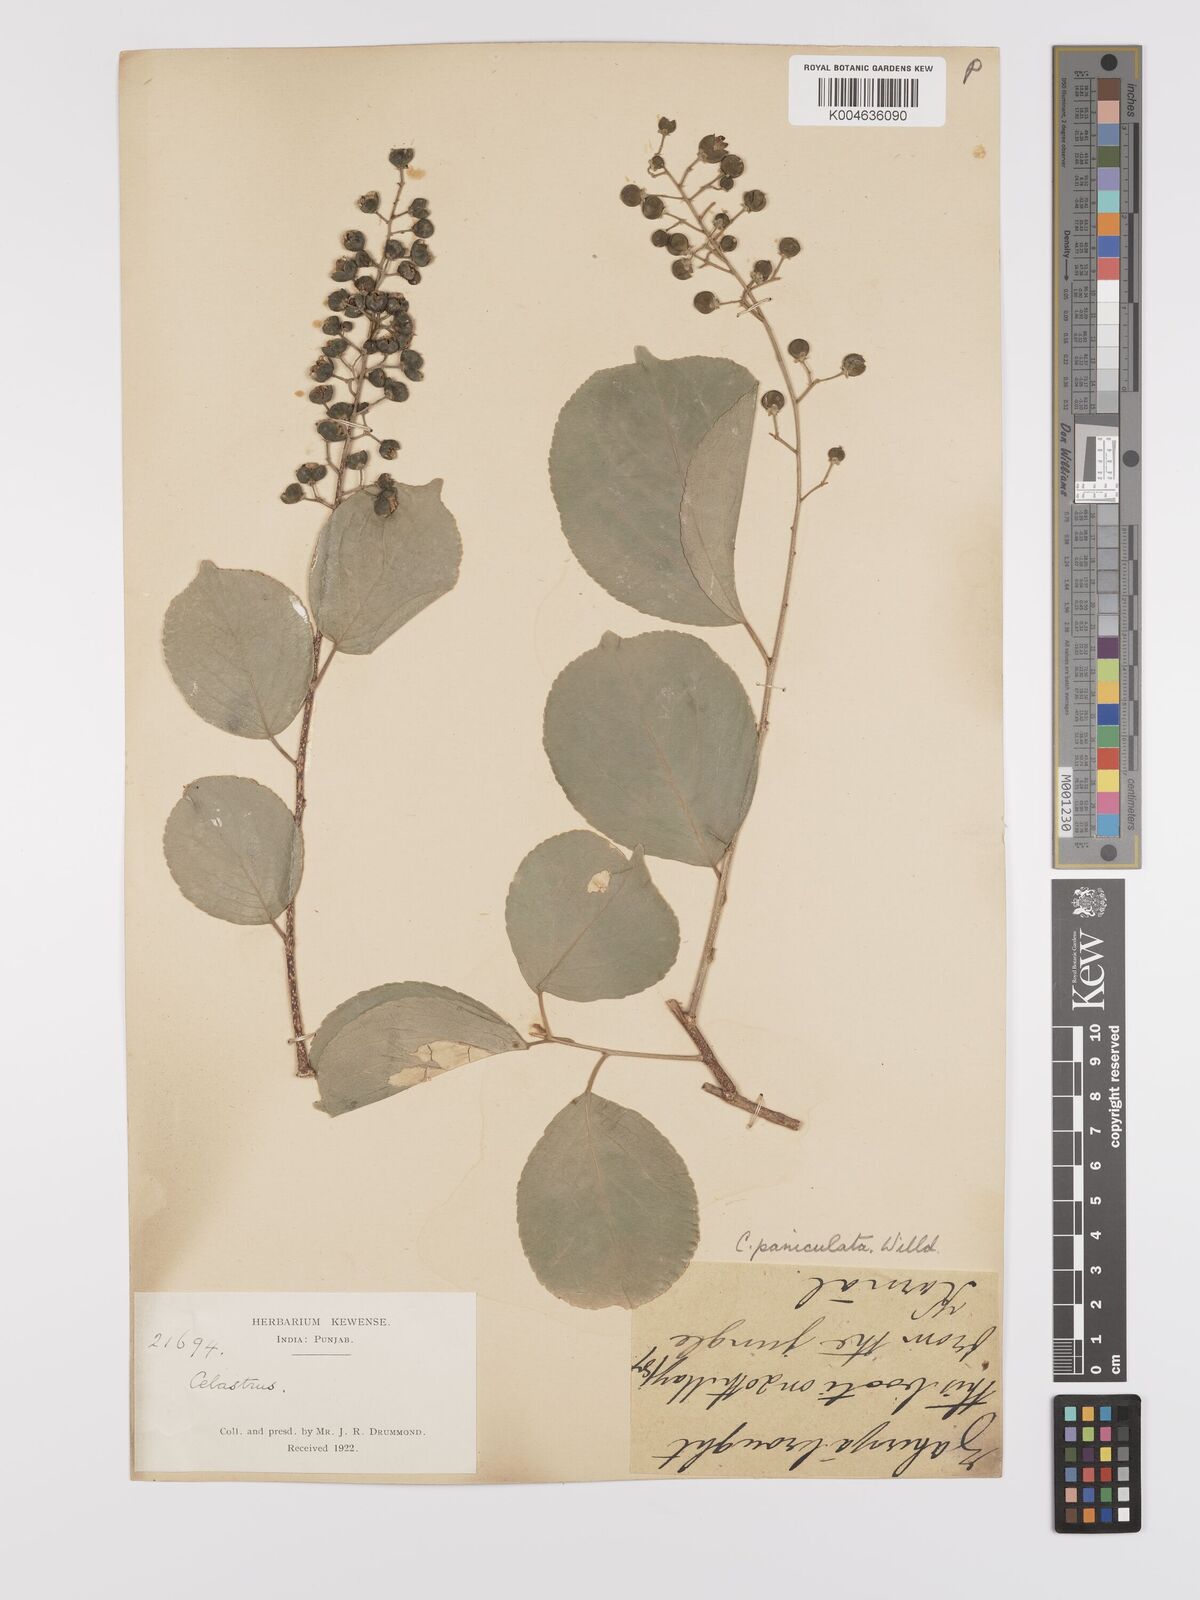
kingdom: Plantae
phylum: Tracheophyta
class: Magnoliopsida
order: Celastrales
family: Celastraceae
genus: Celastrus
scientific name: Celastrus paniculatus
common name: Oriental bittersweet; staff vine
